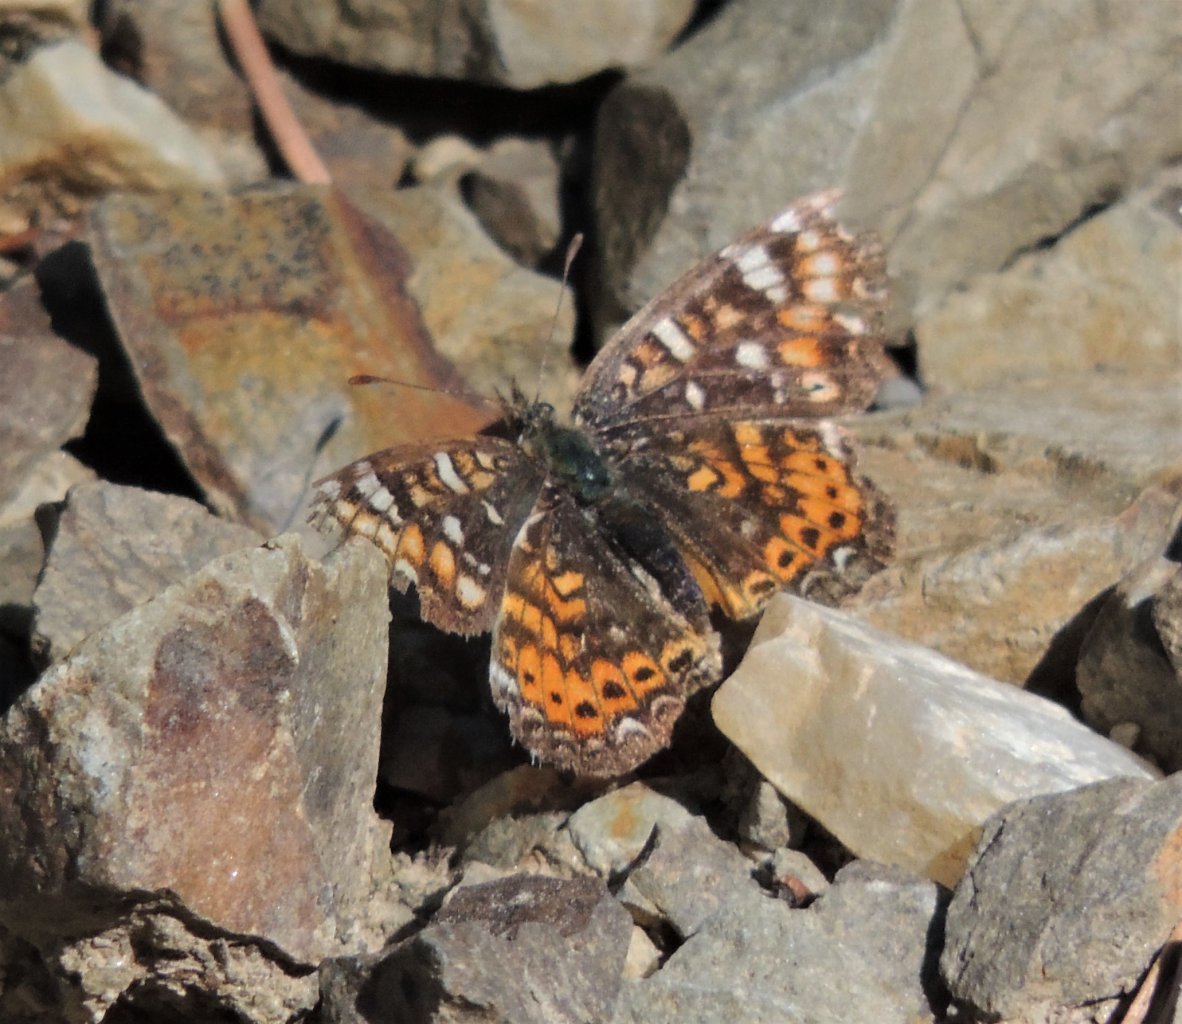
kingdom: Animalia
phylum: Arthropoda
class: Insecta
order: Lepidoptera
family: Nymphalidae
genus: Phyciodes
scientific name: Phyciodes tharos
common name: Field Crescent
